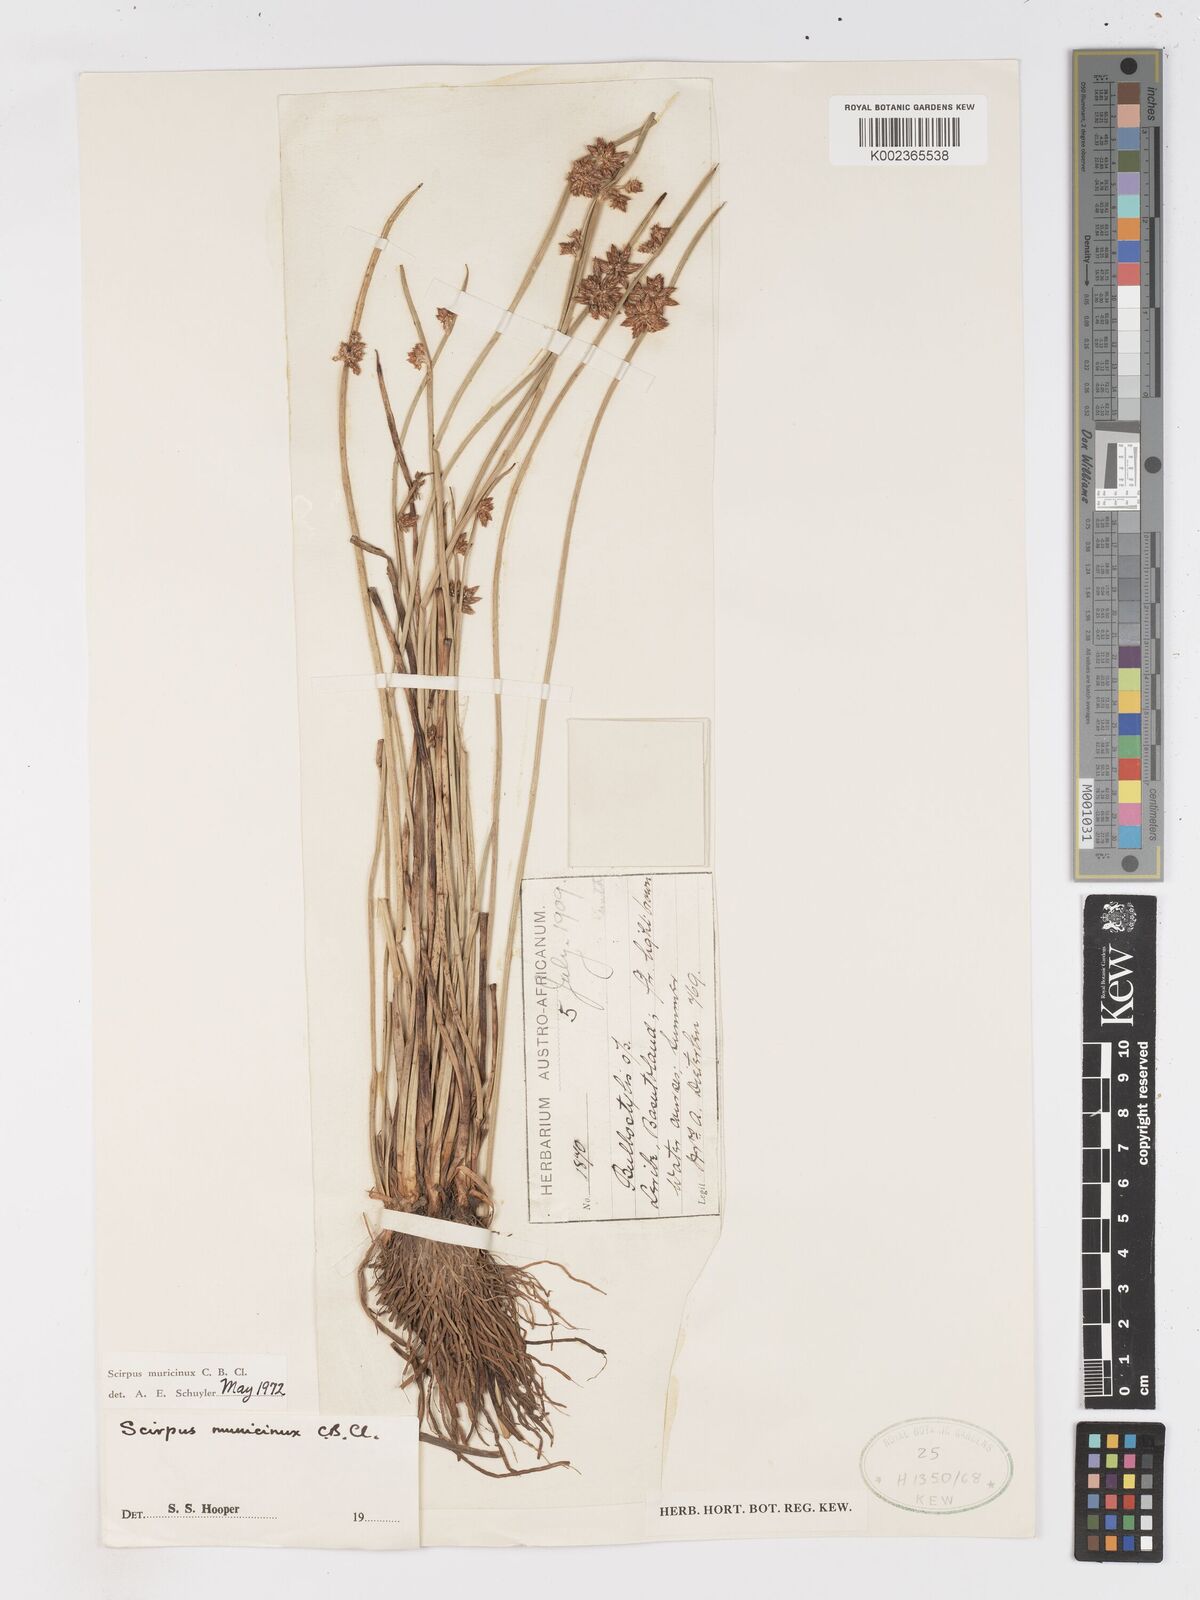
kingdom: Plantae
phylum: Tracheophyta
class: Liliopsida
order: Poales
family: Cyperaceae
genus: Schoenoplectiella
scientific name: Schoenoplectiella muricinux
